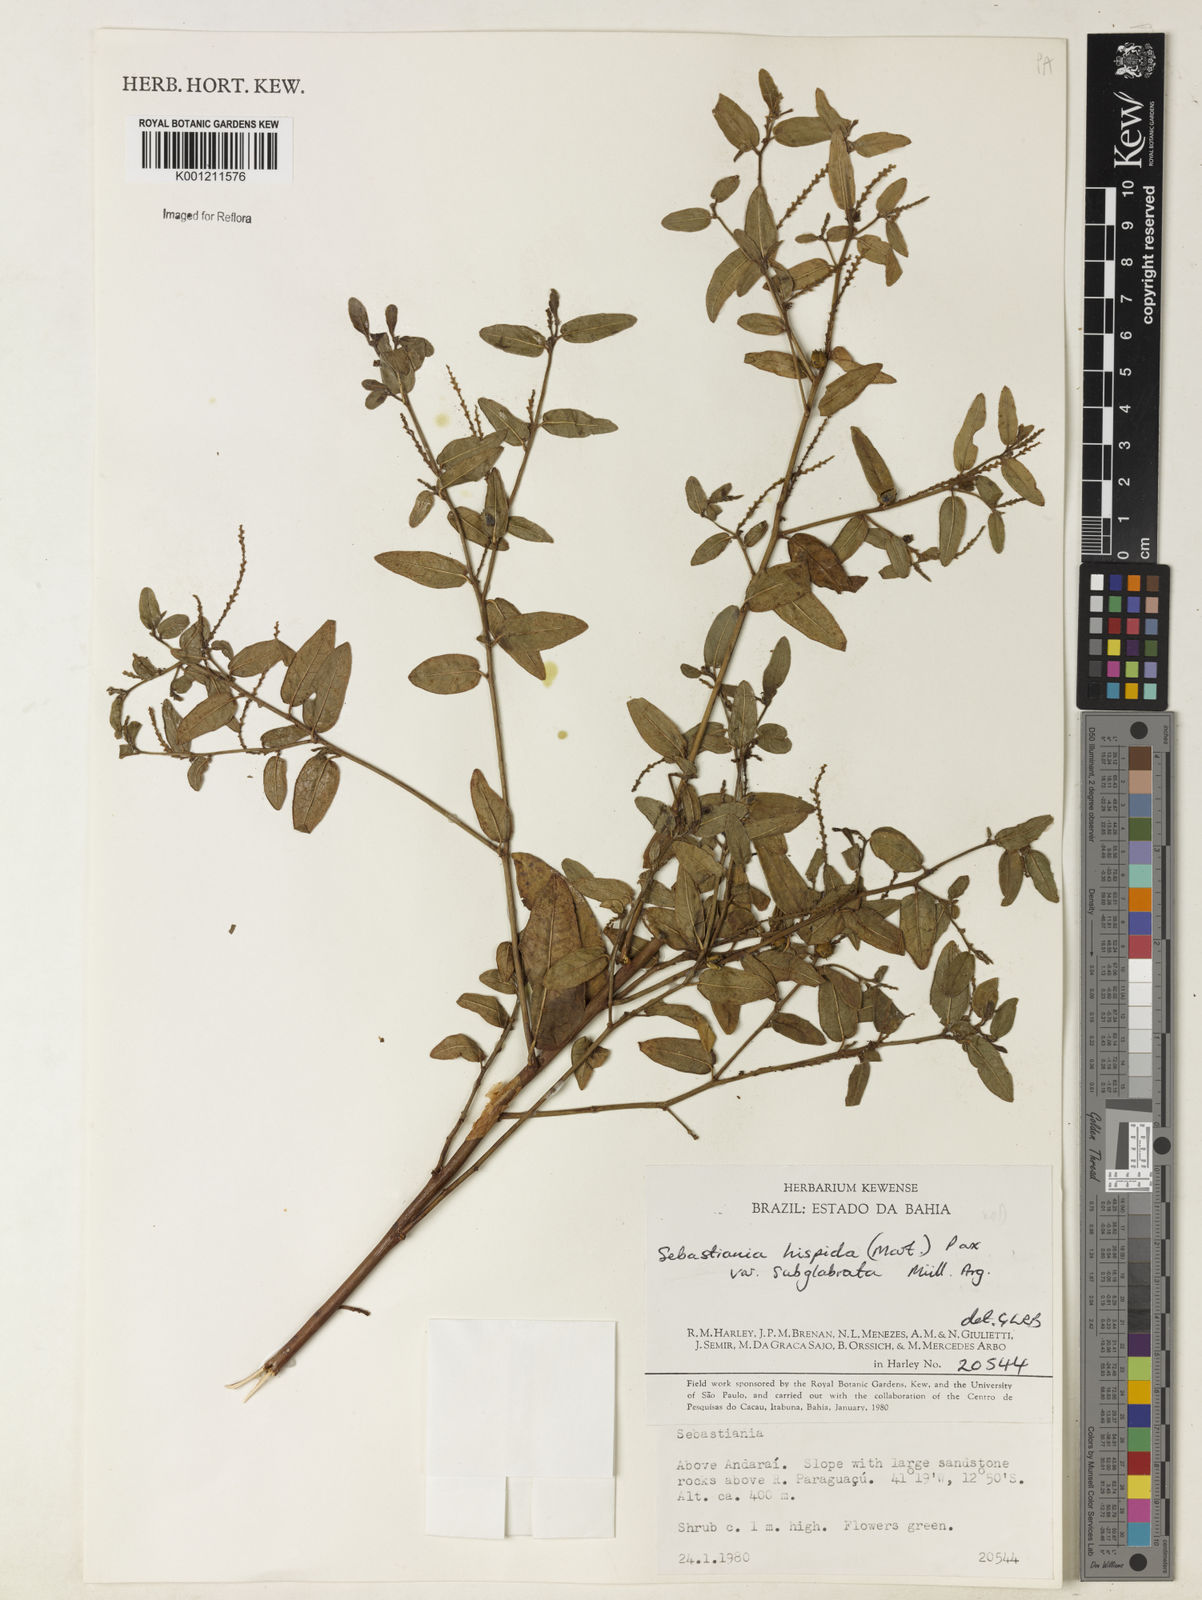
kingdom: Plantae
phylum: Tracheophyta
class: Magnoliopsida
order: Malpighiales
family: Euphorbiaceae
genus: Microstachys
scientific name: Microstachys hispida
